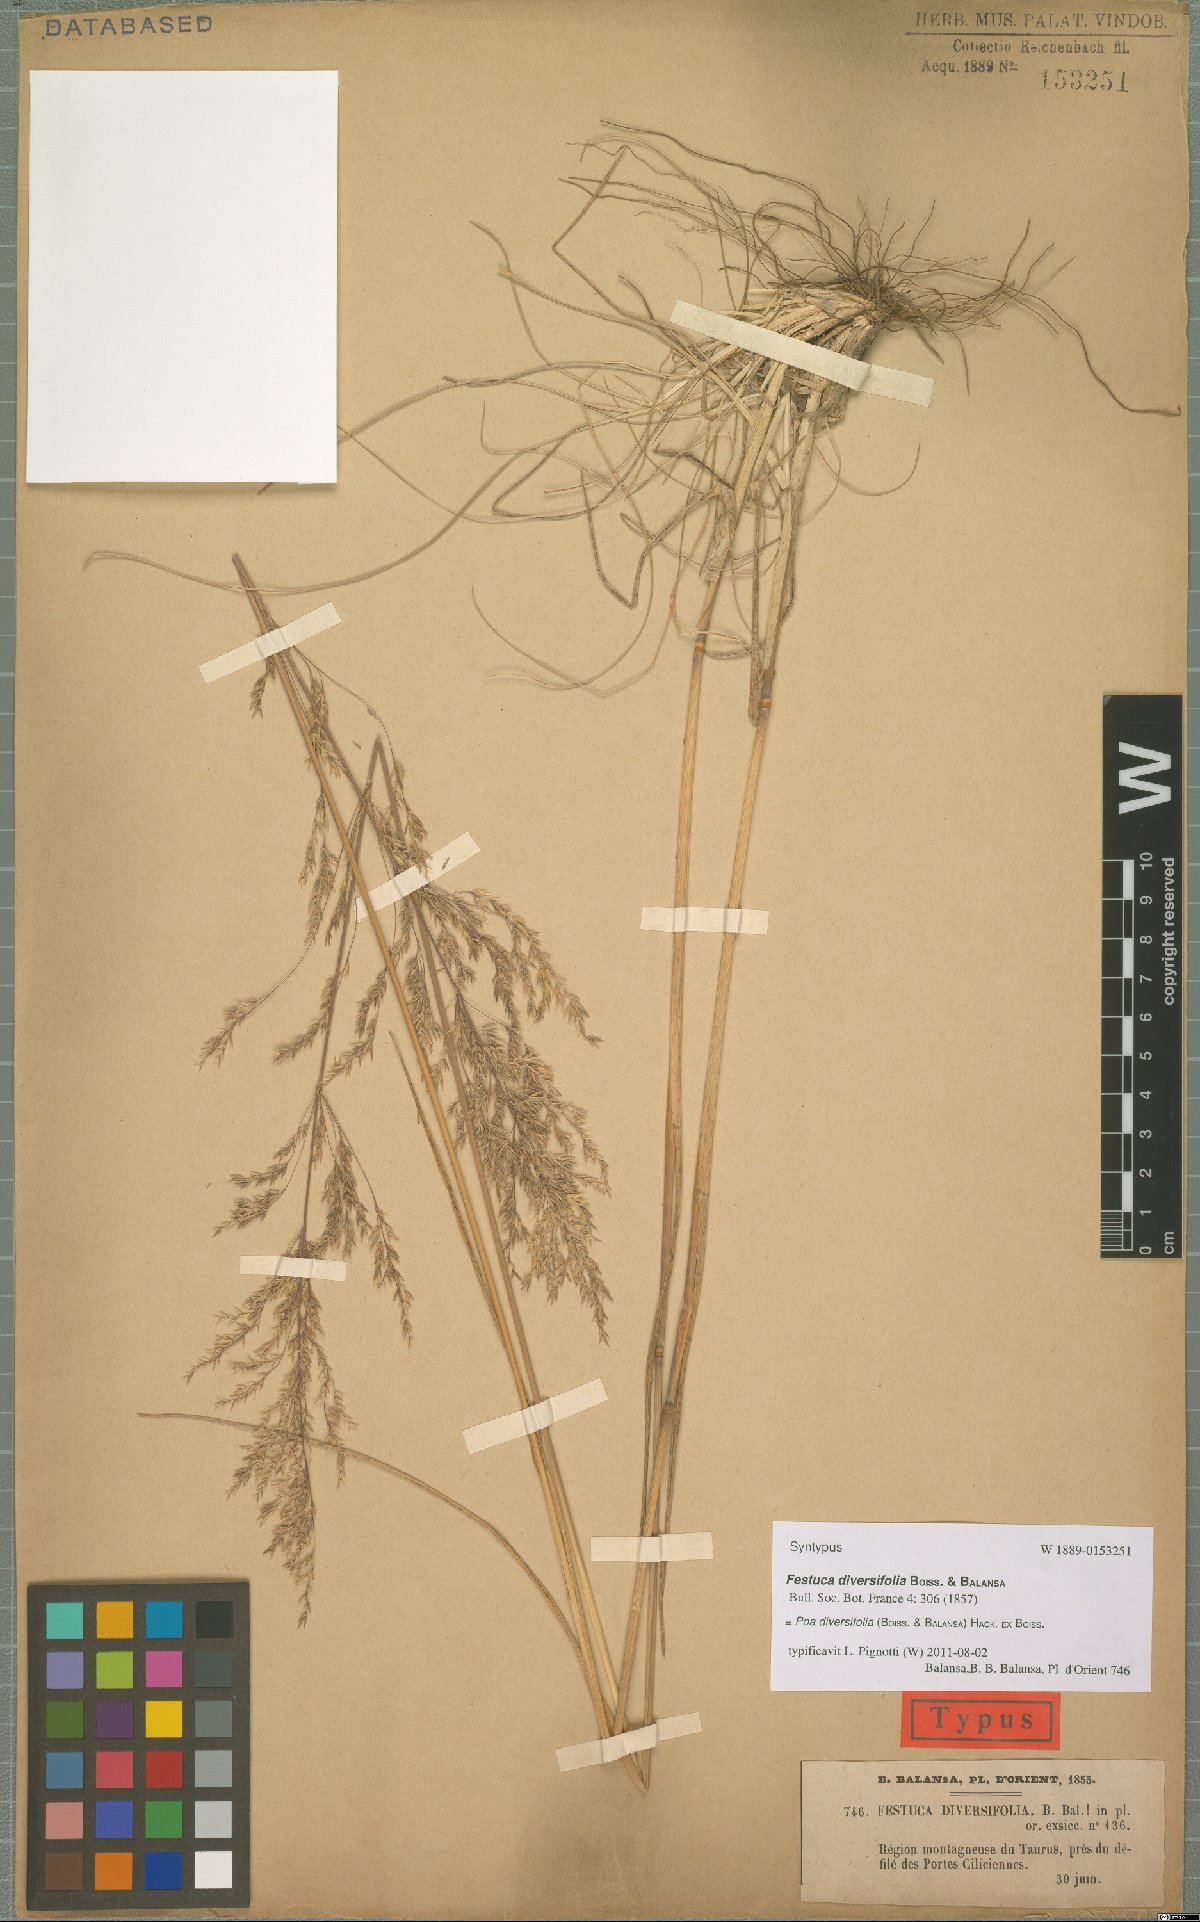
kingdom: Plantae
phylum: Tracheophyta
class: Liliopsida
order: Poales
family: Poaceae
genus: Poa
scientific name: Poa diversifolia
